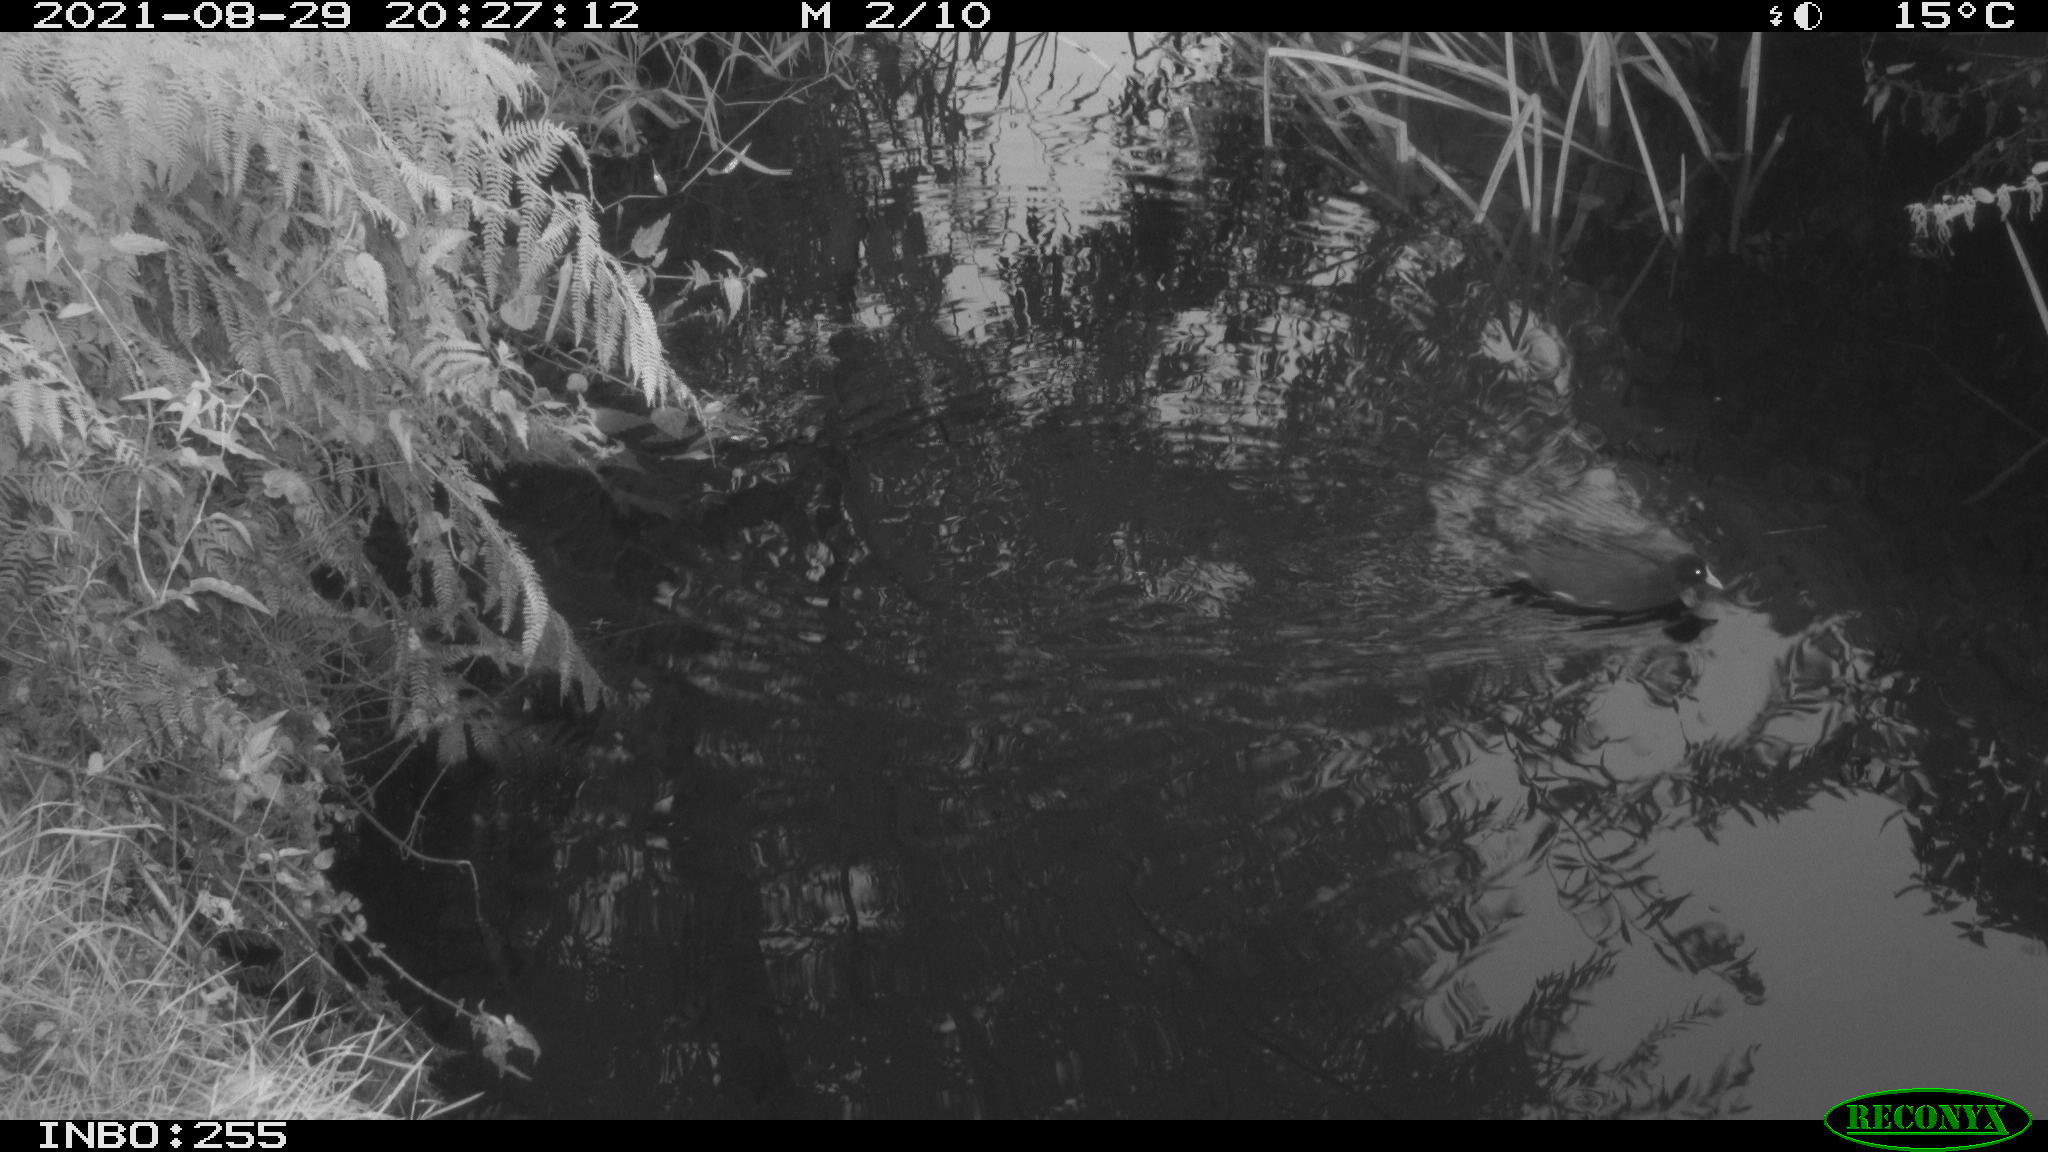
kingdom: Animalia
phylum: Chordata
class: Aves
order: Gruiformes
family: Rallidae
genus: Gallinula
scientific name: Gallinula chloropus
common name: Common moorhen
